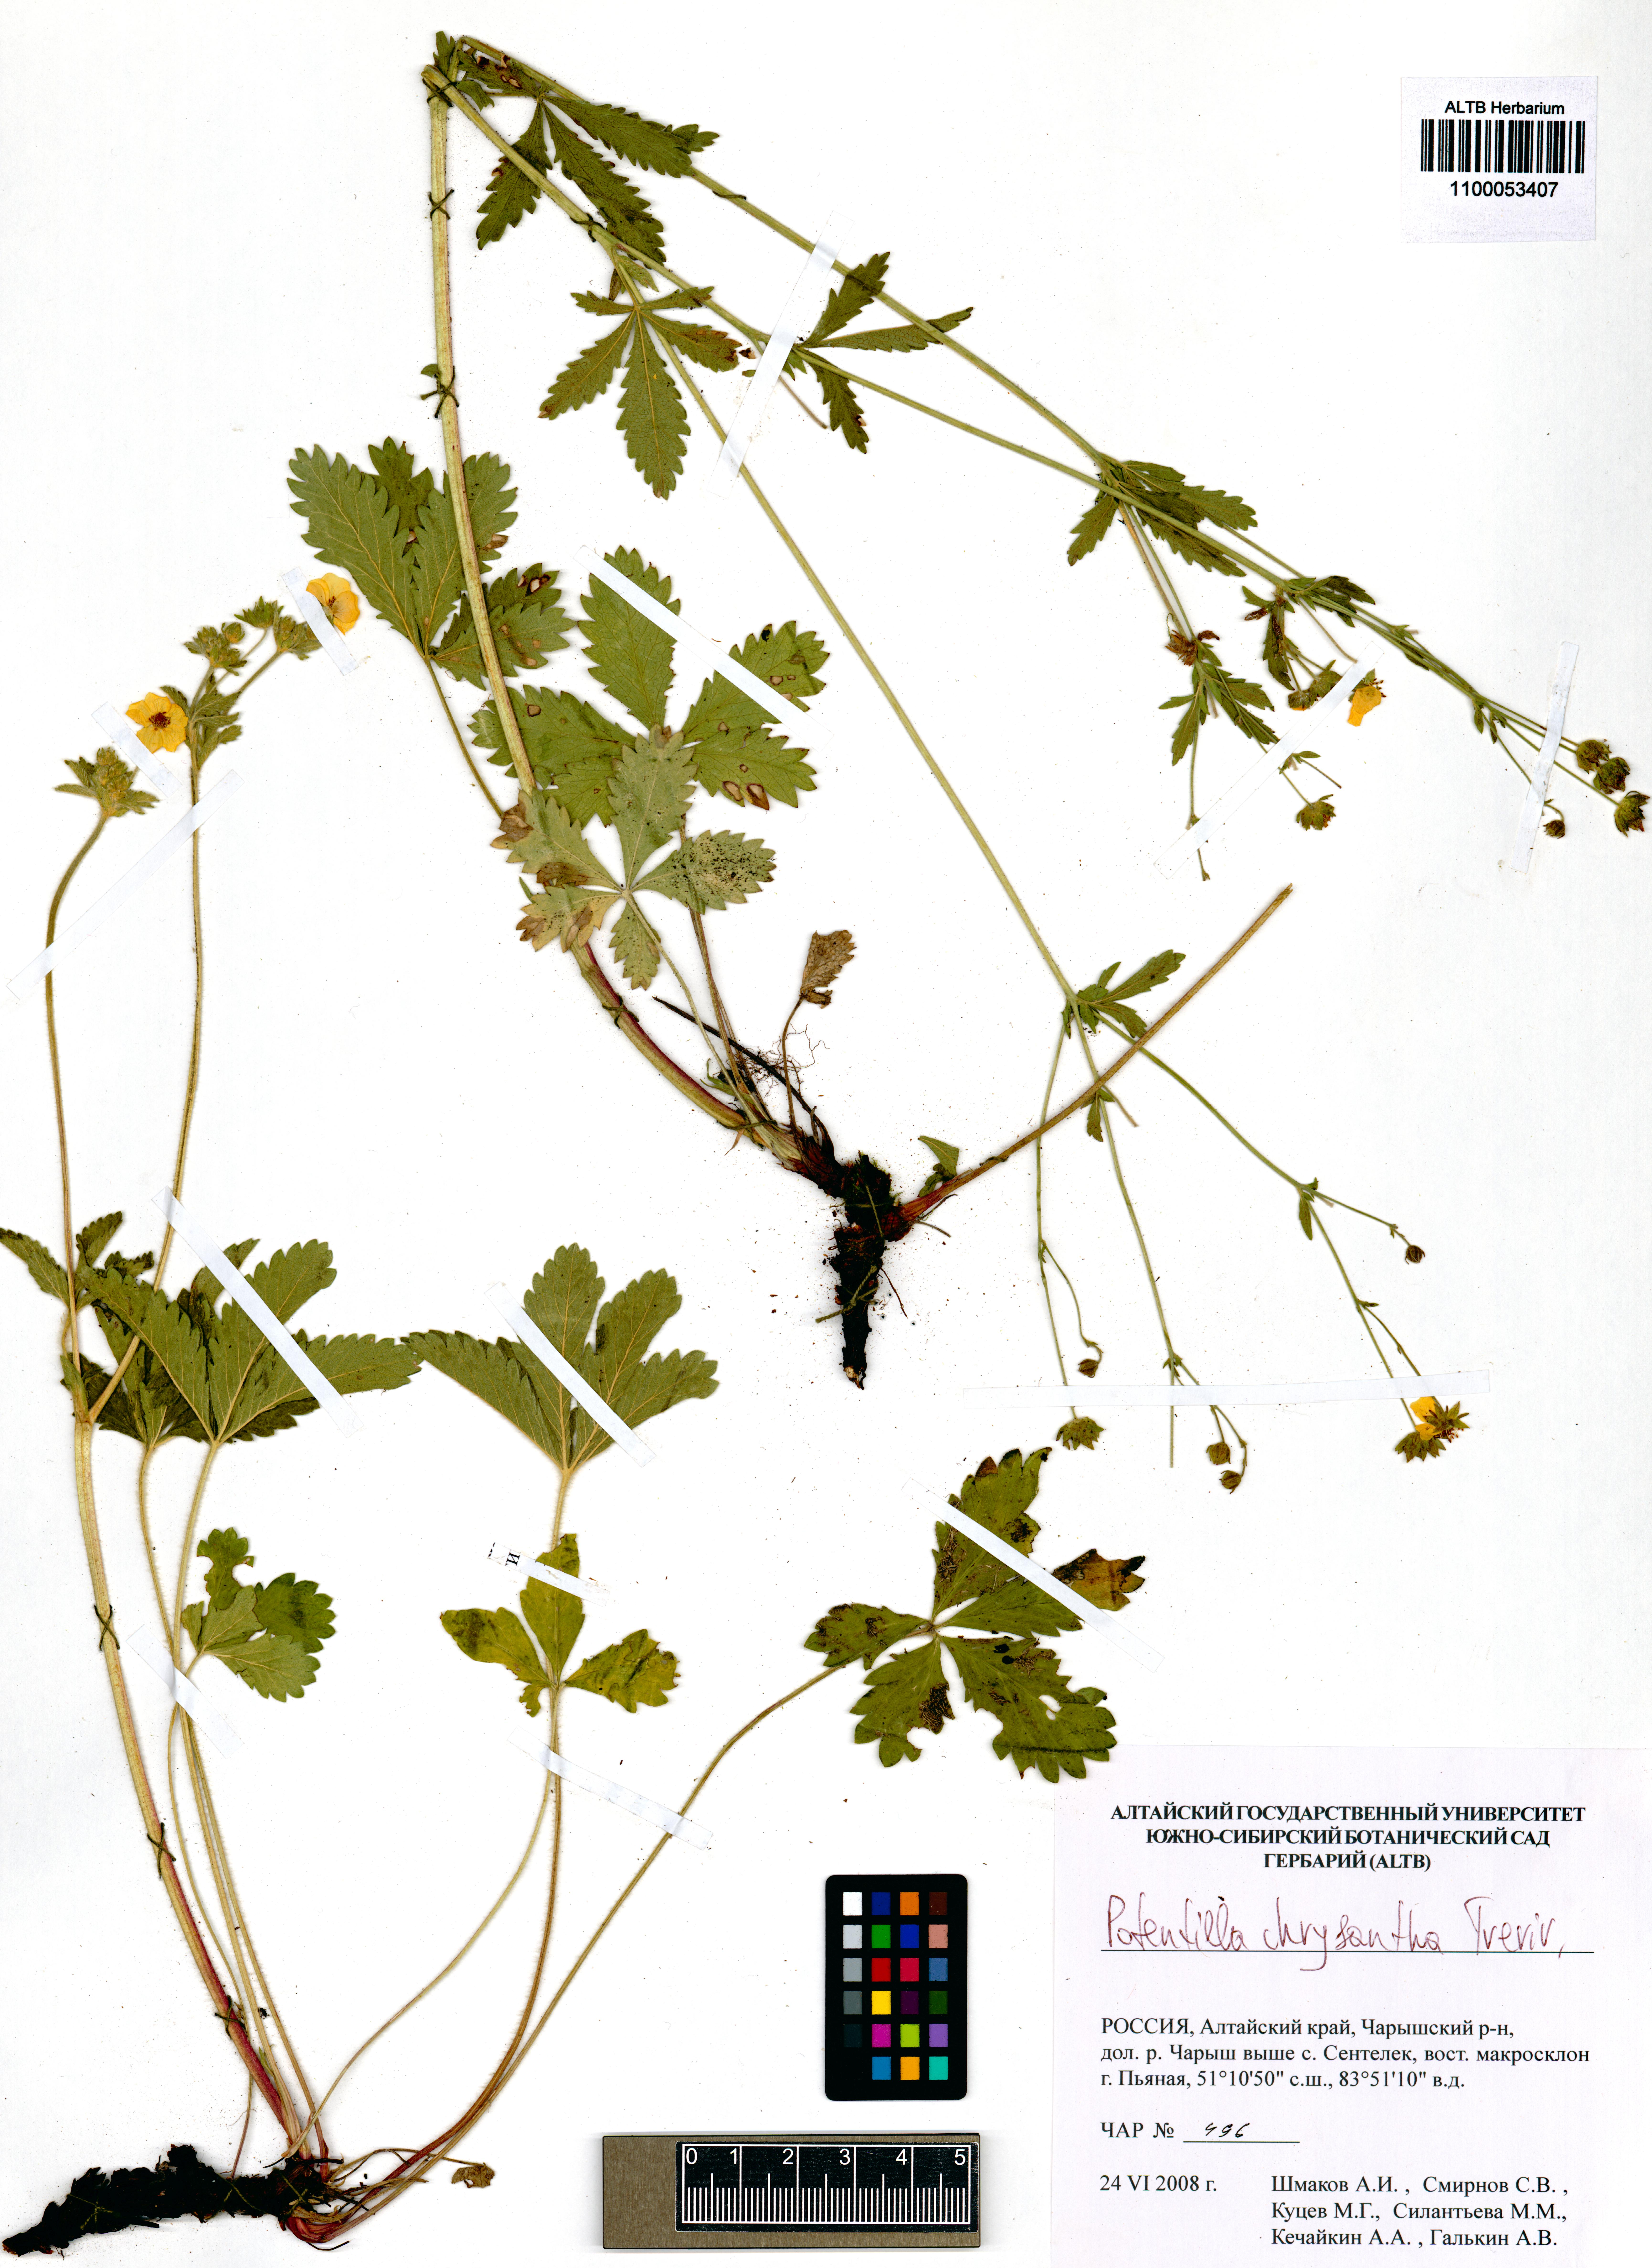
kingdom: Plantae
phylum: Tracheophyta
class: Magnoliopsida
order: Rosales
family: Rosaceae
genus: Potentilla
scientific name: Potentilla chrysantha
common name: Thuringian cinquefoil
